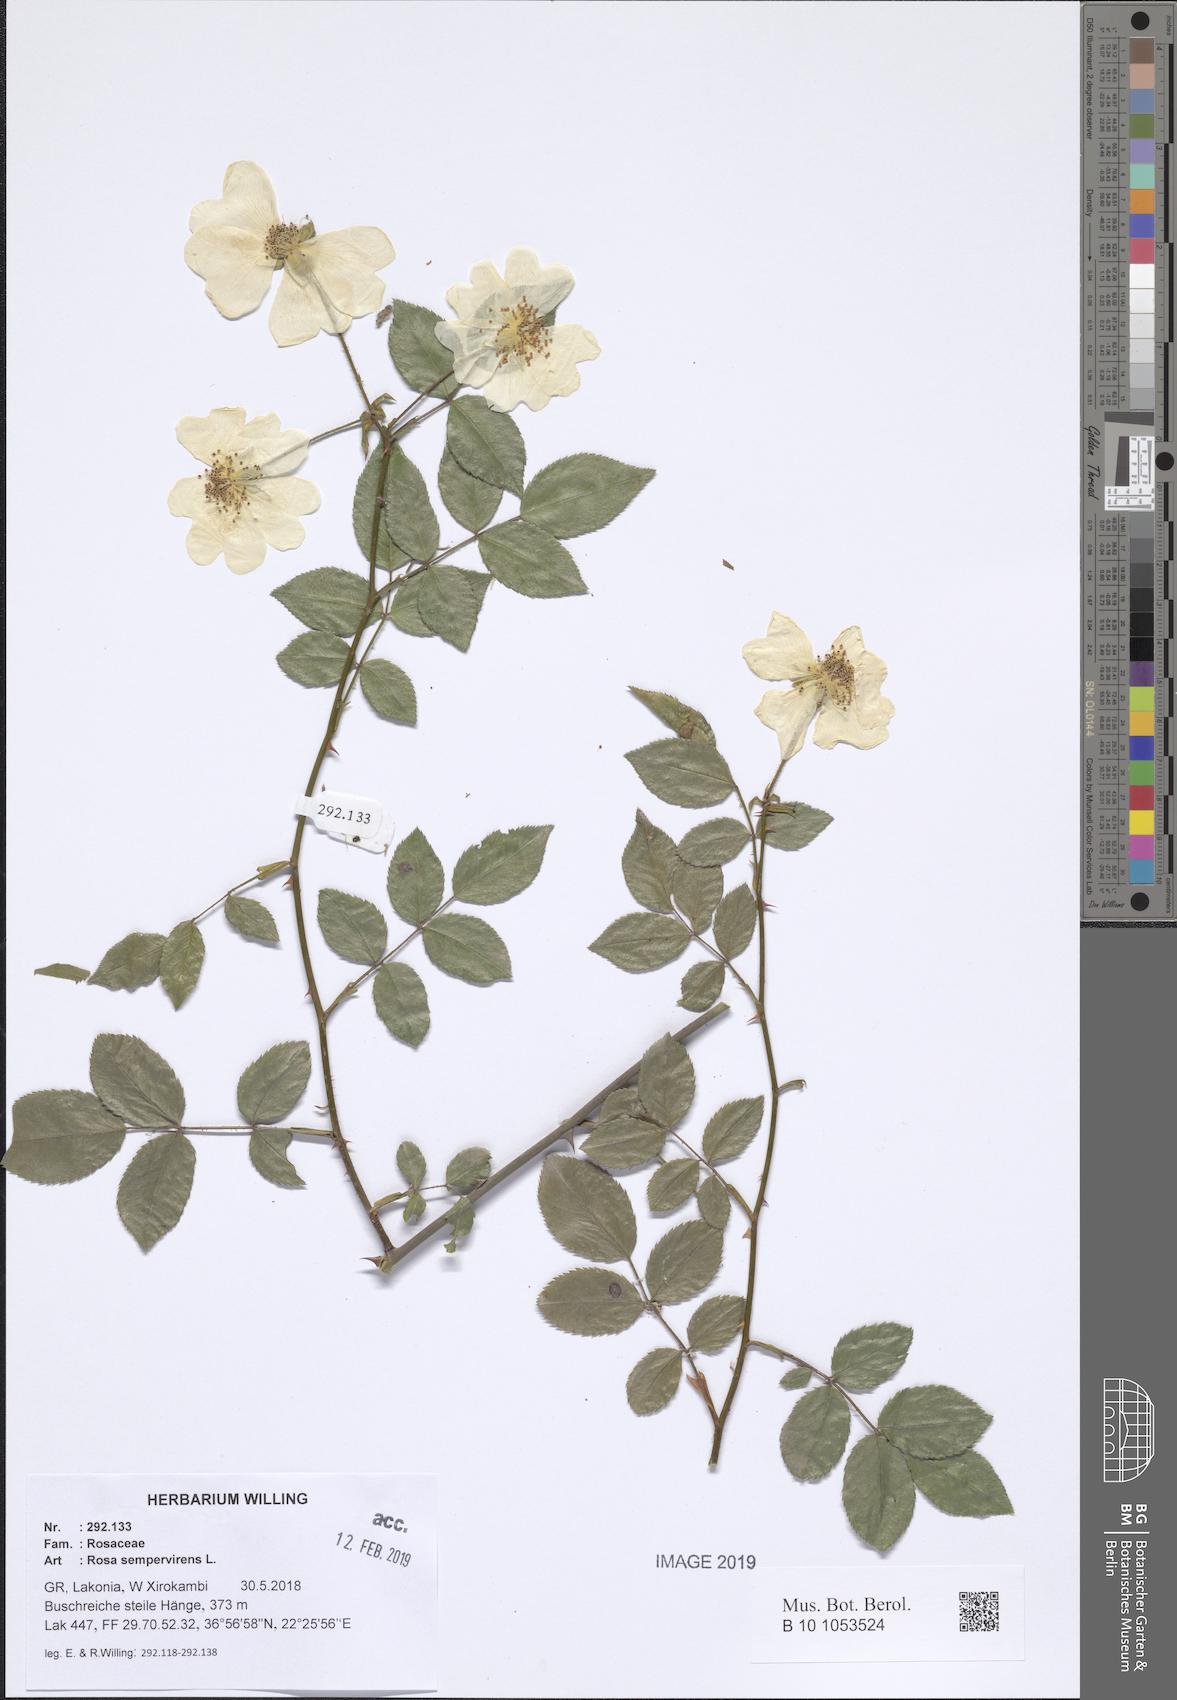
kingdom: Plantae
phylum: Tracheophyta
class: Magnoliopsida
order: Rosales
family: Rosaceae
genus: Rosa
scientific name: Rosa sempervirens
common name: Evergreen rose
